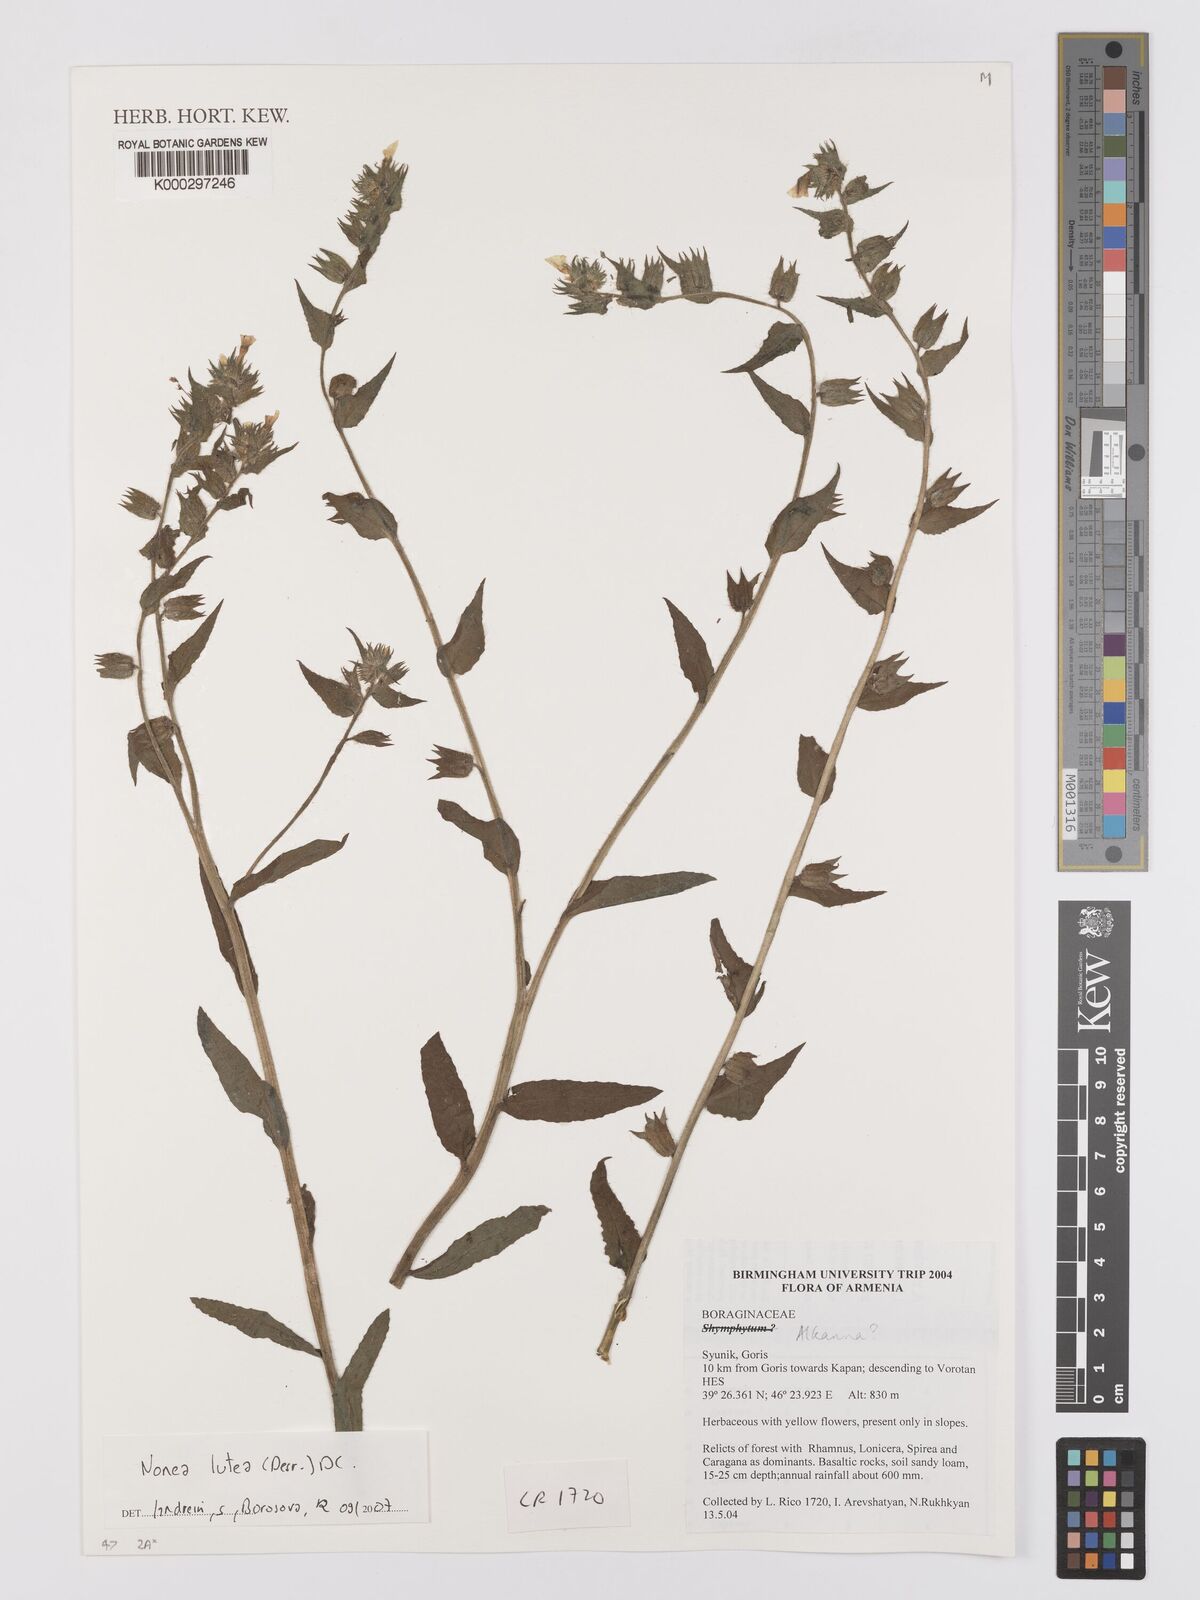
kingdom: Plantae
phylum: Tracheophyta
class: Magnoliopsida
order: Boraginales
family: Boraginaceae
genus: Nonea
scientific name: Nonea lutea
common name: Yellow nonea
